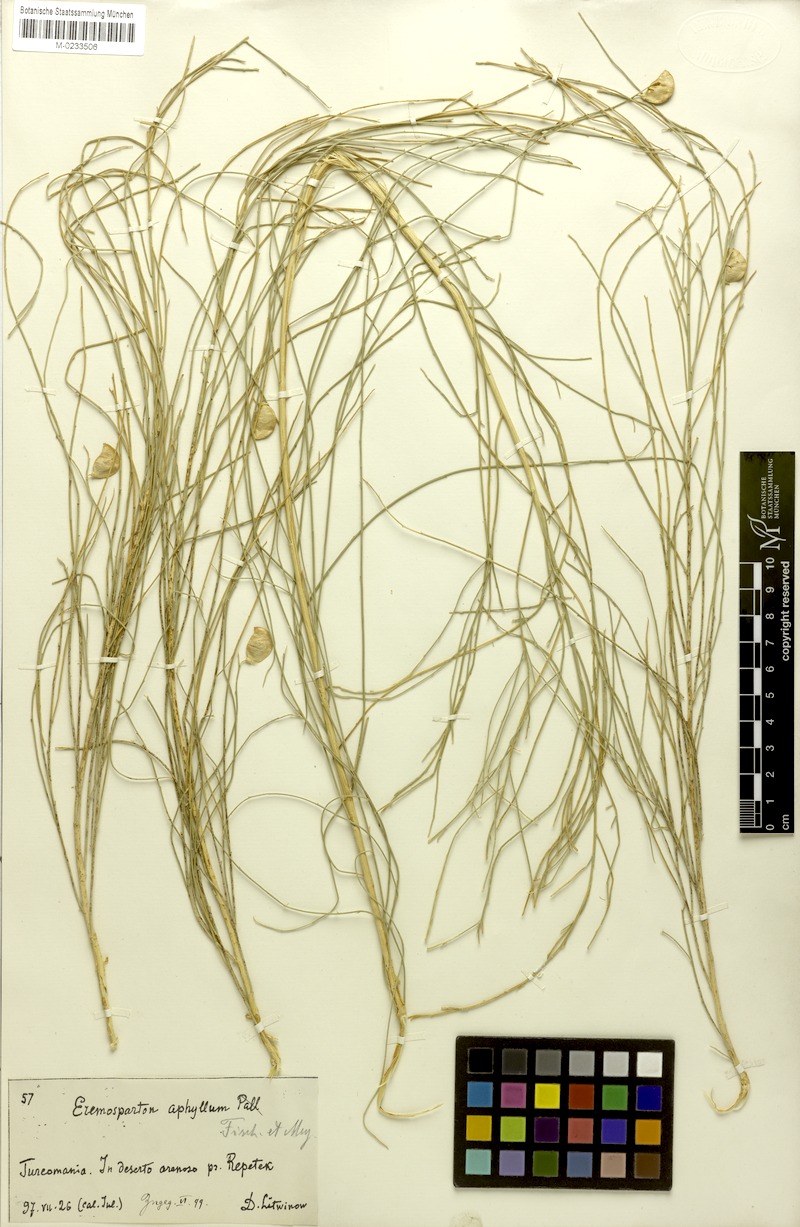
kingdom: Plantae
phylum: Tracheophyta
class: Magnoliopsida
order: Fabales
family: Fabaceae
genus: Eremosparton
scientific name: Eremosparton flaccidum
